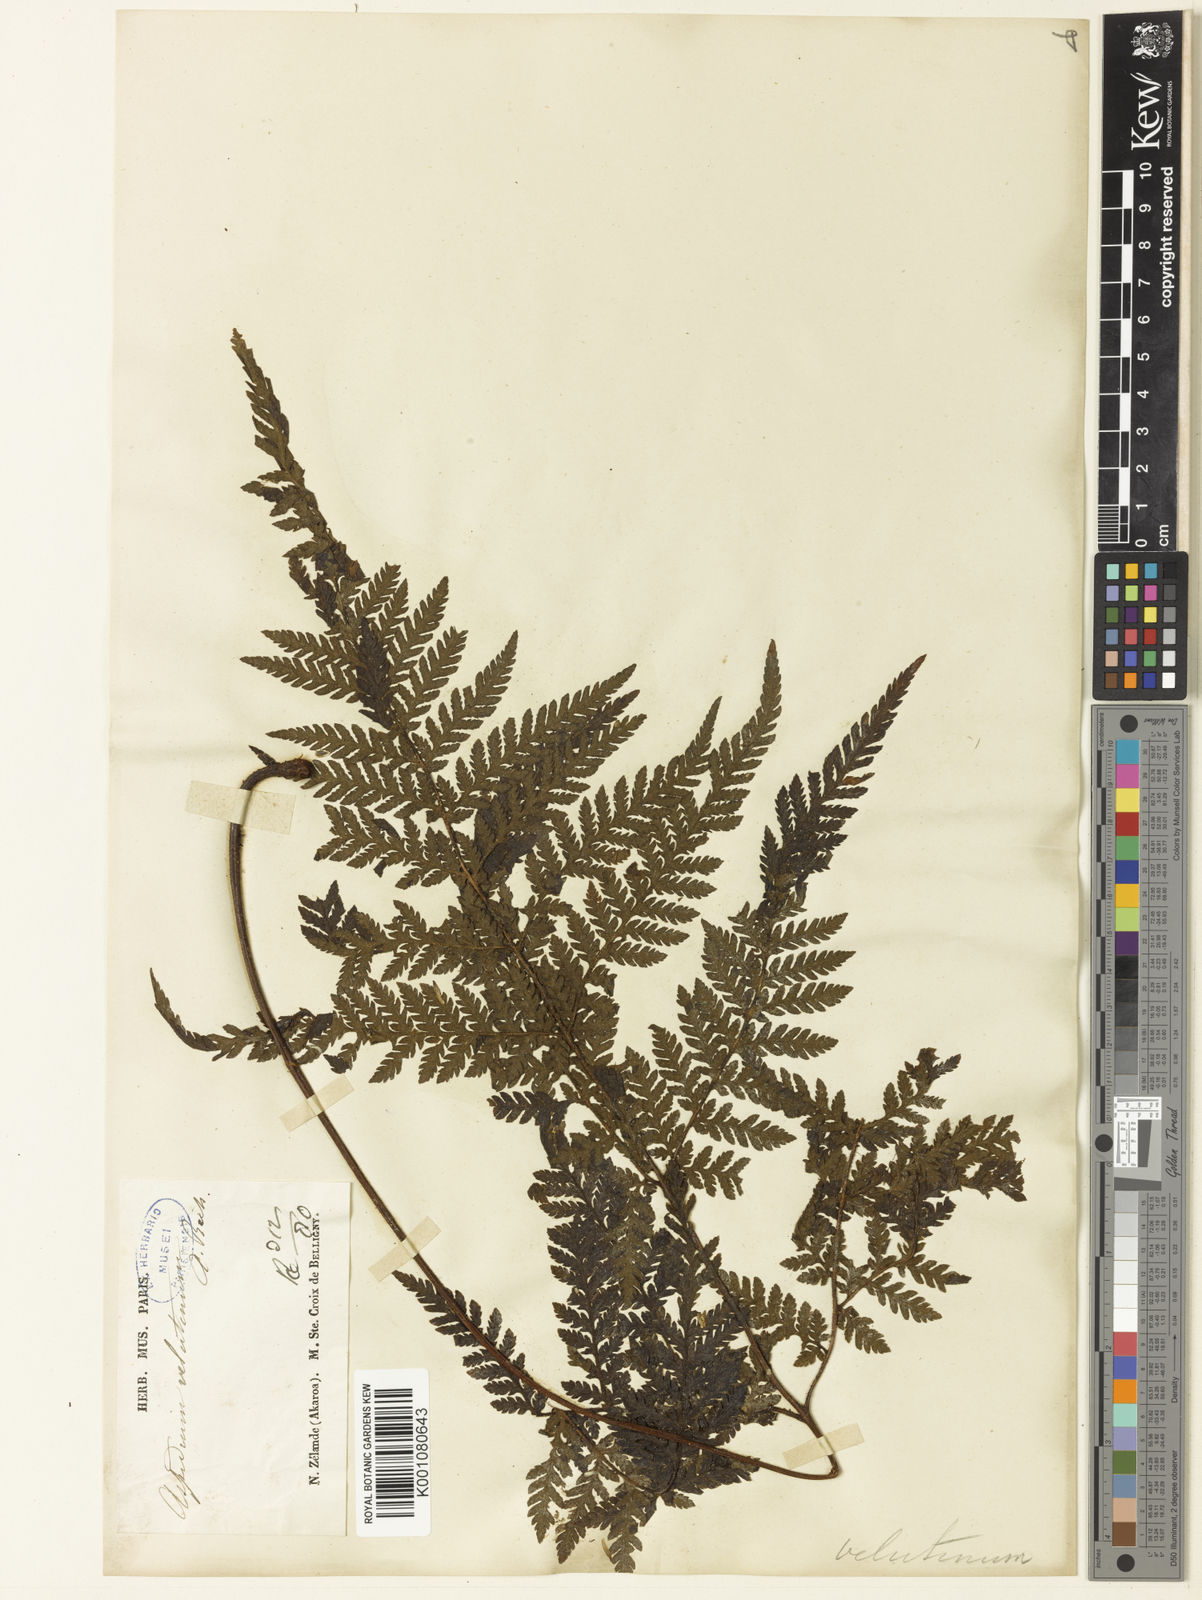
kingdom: Plantae
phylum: Tracheophyta
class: Polypodiopsida
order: Polypodiales
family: Dryopteridaceae
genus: Lastreopsis
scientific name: Lastreopsis velutina
